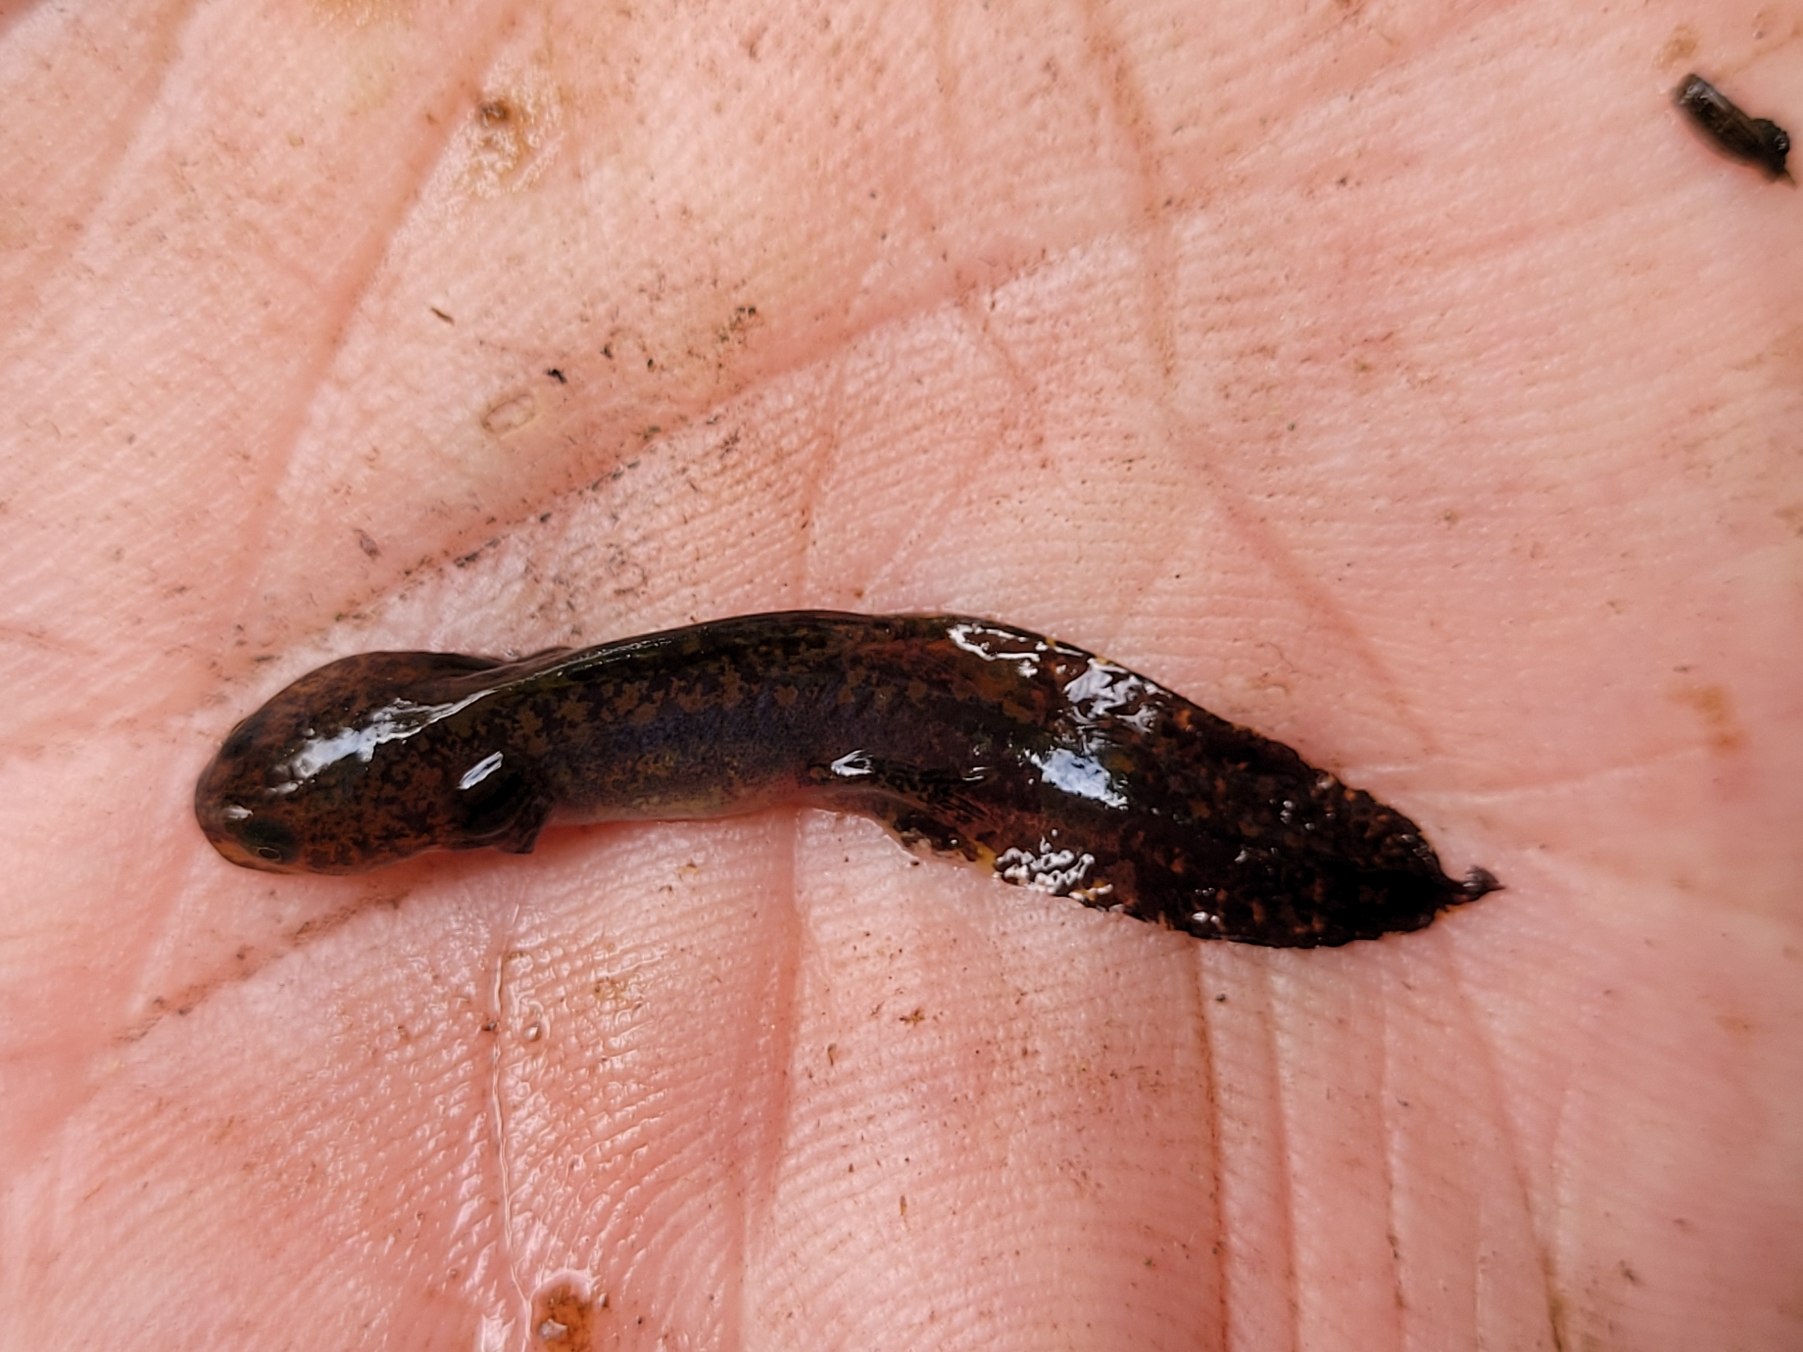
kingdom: Animalia
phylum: Chordata
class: Amphibia
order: Caudata
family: Salamandridae
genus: Ichthyosaura
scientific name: Ichthyosaura alpestris
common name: Bjergsalamander
